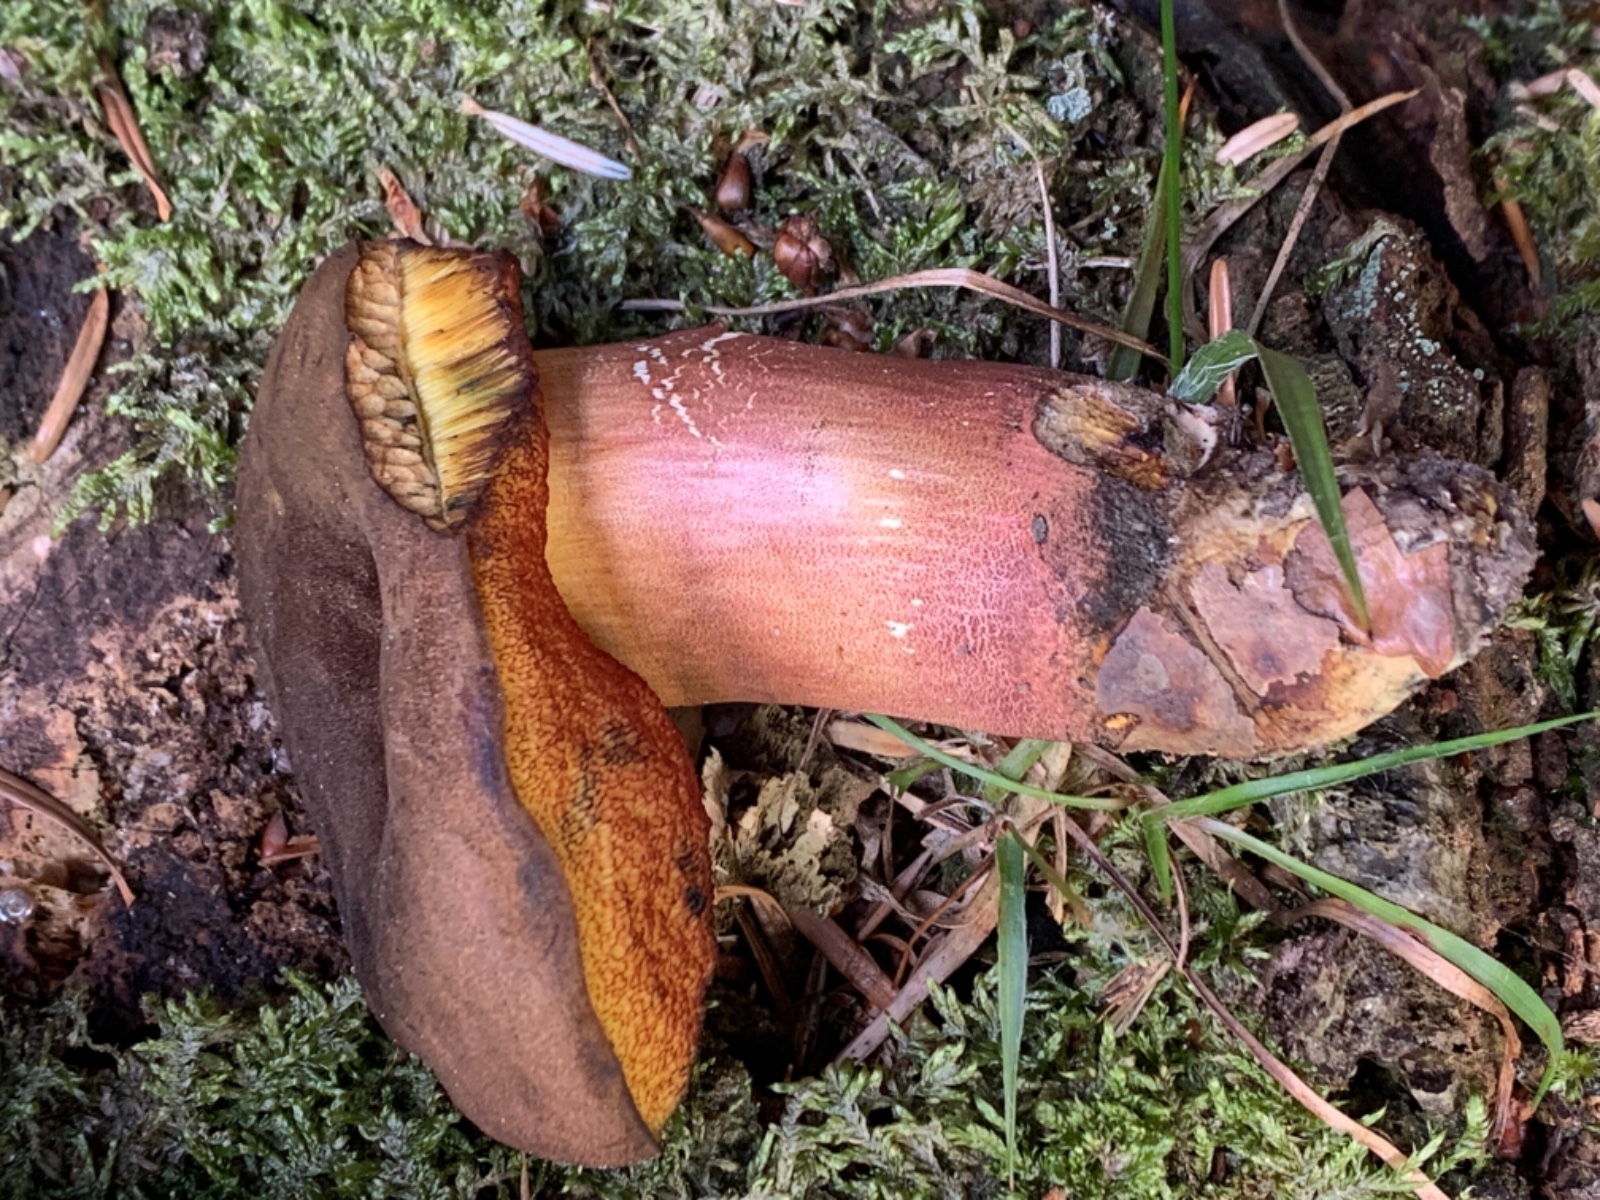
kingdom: Fungi
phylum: Basidiomycota
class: Agaricomycetes
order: Boletales
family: Boletaceae
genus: Neoboletus
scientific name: Neoboletus erythropus
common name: punktstokket indigorørhat
